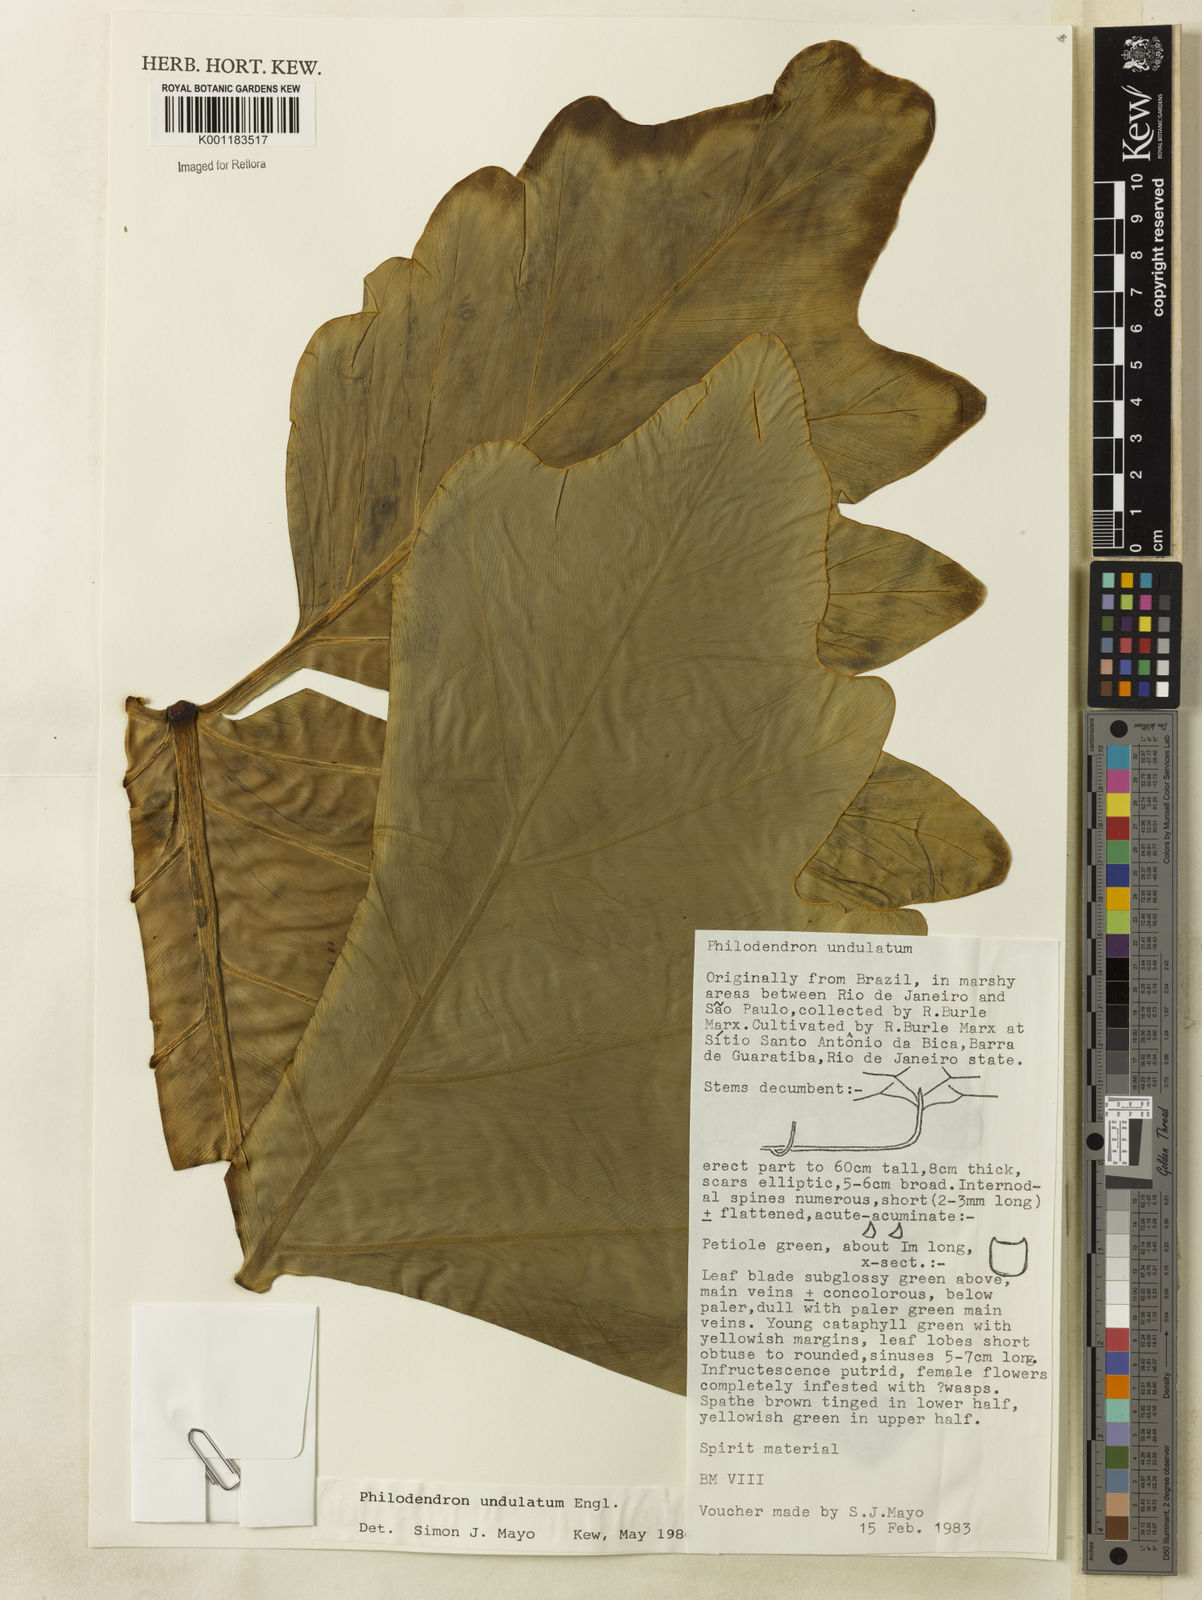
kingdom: Plantae
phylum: Tracheophyta
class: Liliopsida
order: Alismatales
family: Araceae
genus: Thaumatophyllum
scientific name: Thaumatophyllum undulatum
